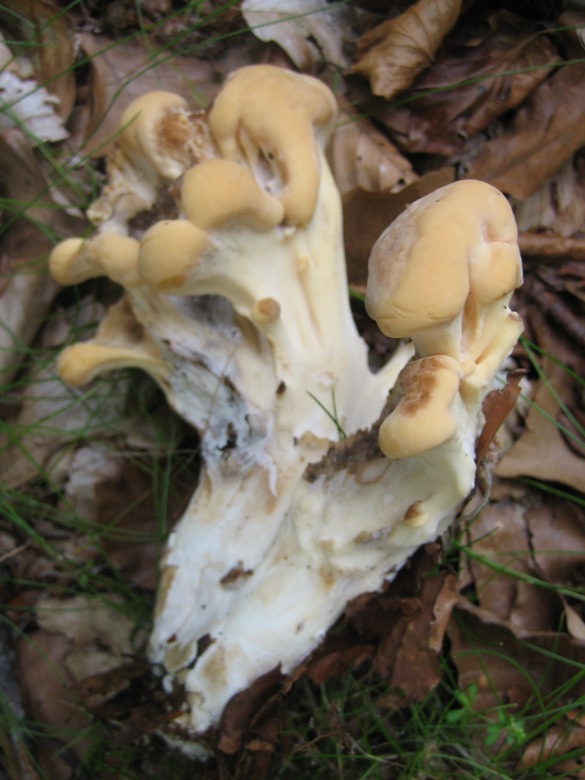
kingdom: Fungi
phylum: Basidiomycota
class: Agaricomycetes
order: Polyporales
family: Meripilaceae
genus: Meripilus
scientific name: Meripilus giganteus
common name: kæmpeporesvamp
